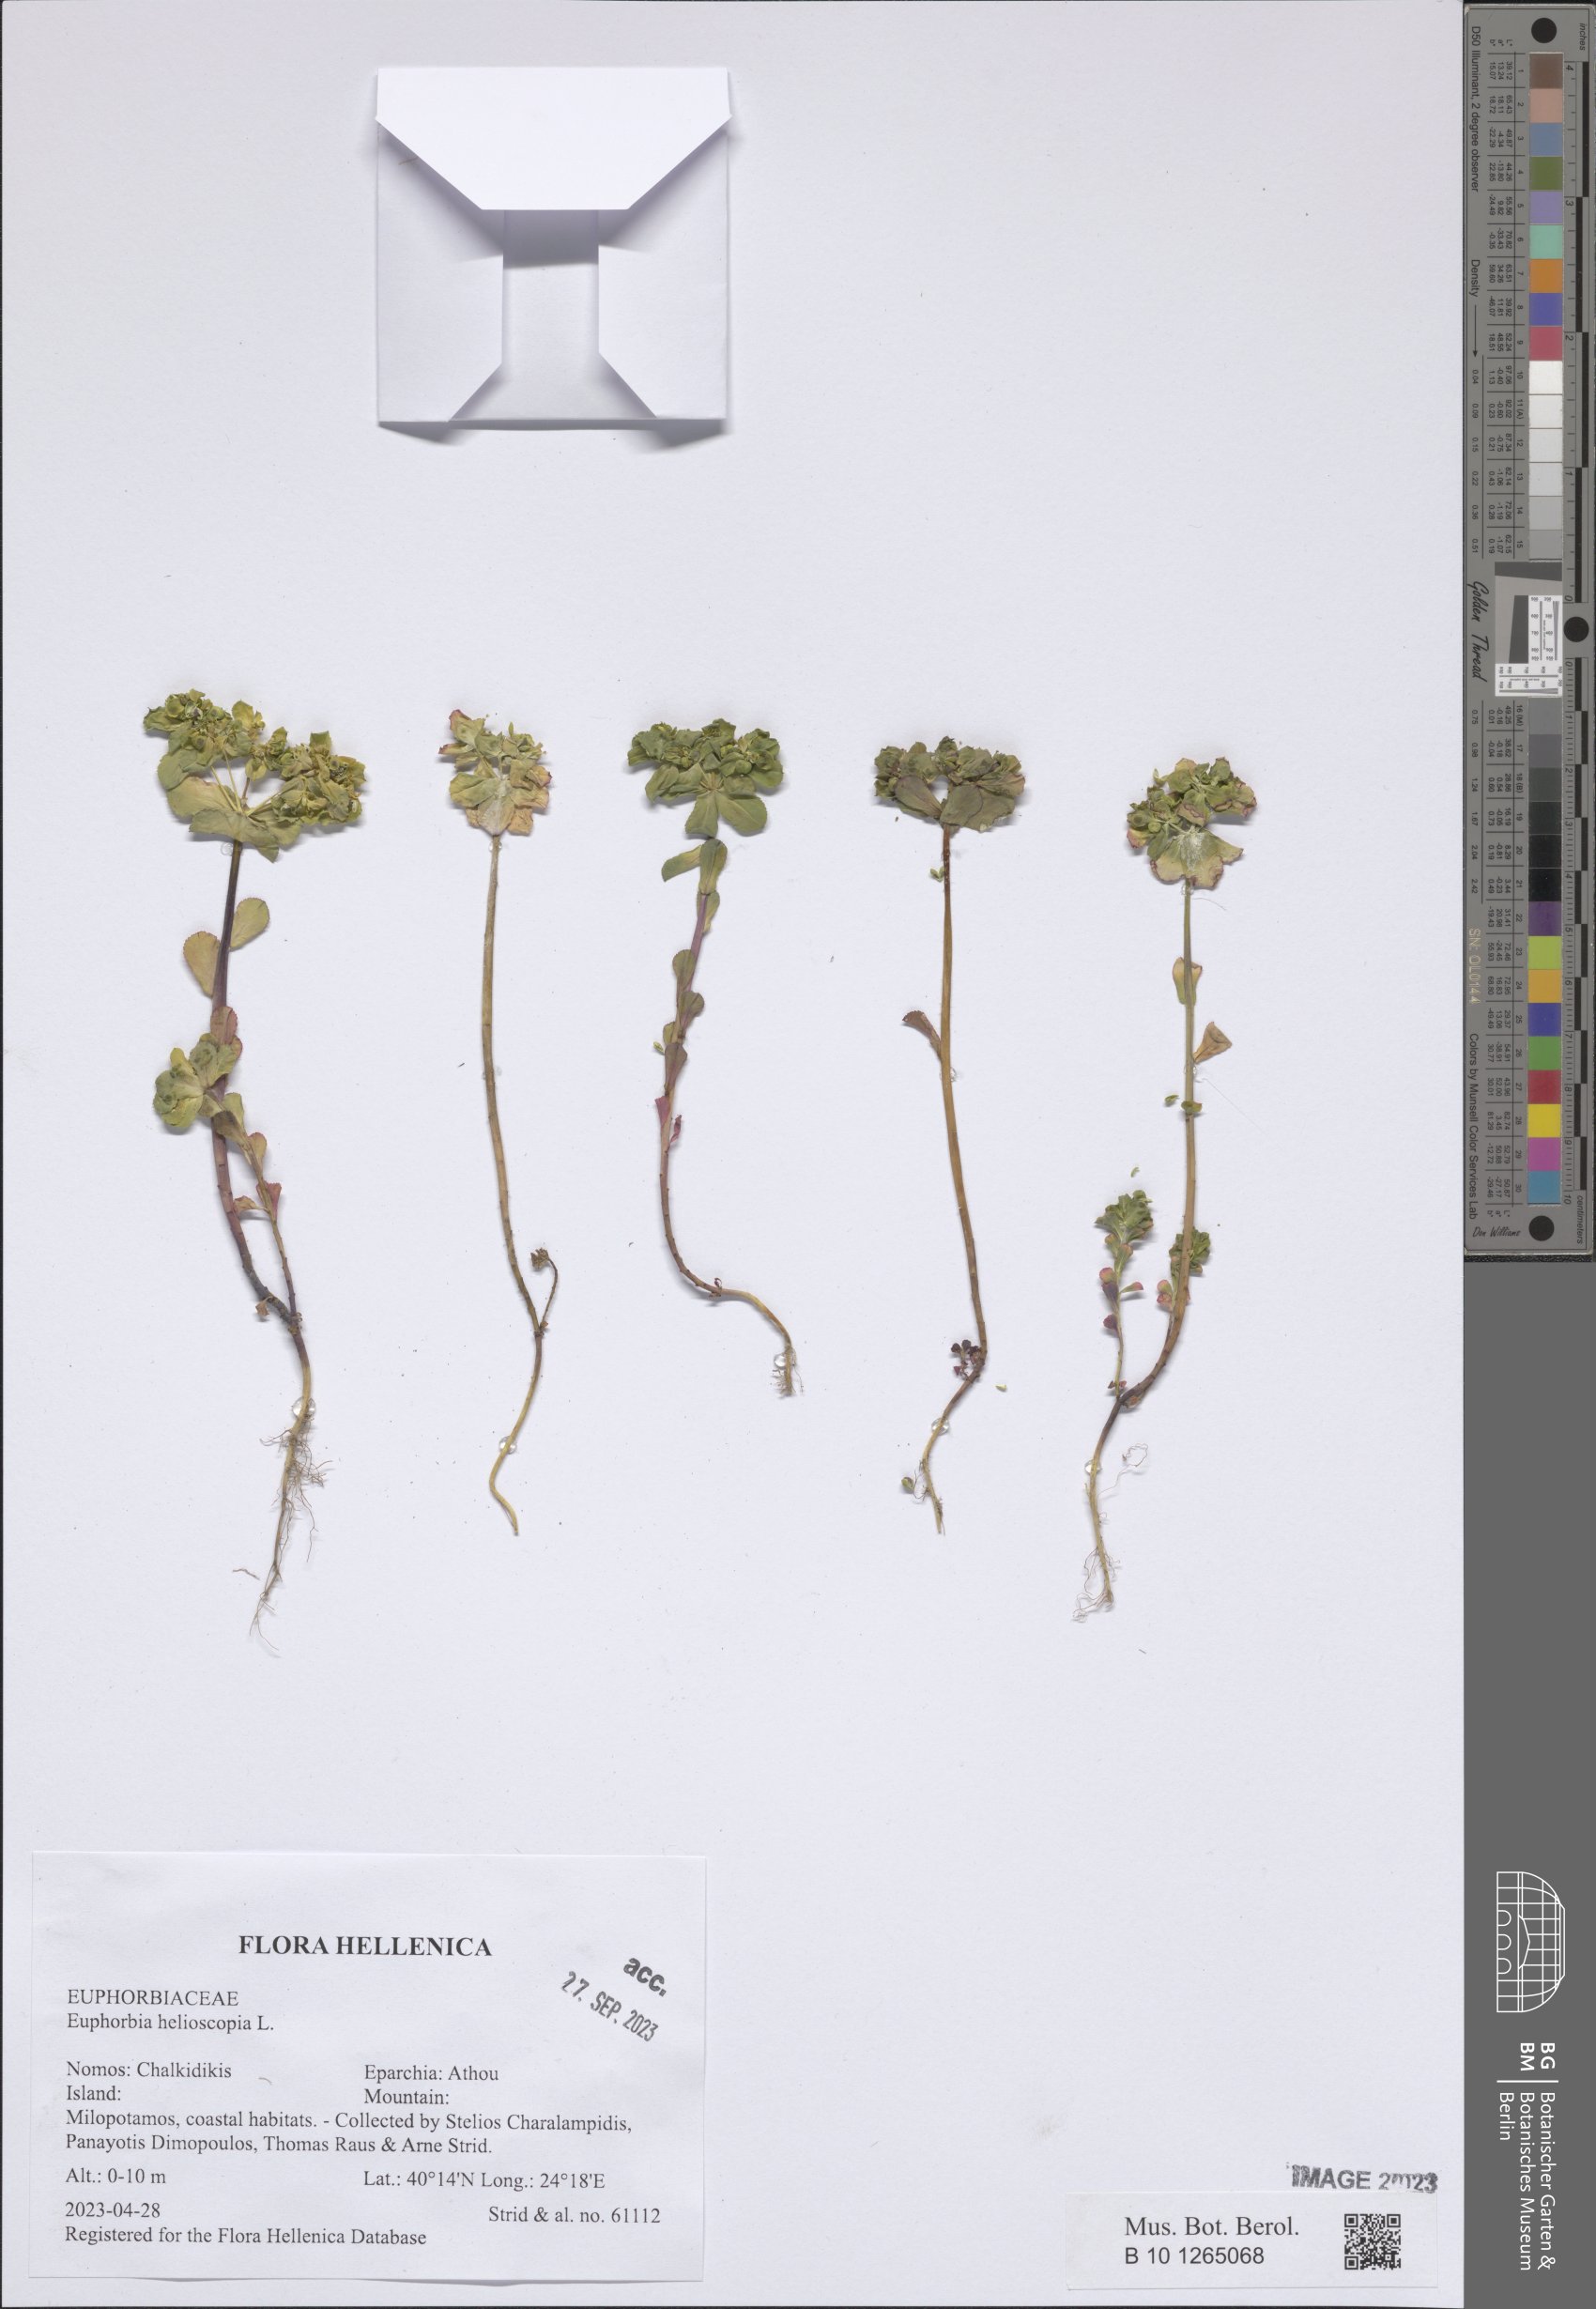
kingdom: Plantae
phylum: Tracheophyta
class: Magnoliopsida
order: Malpighiales
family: Euphorbiaceae
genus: Euphorbia
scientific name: Euphorbia helioscopia
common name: Sun spurge
